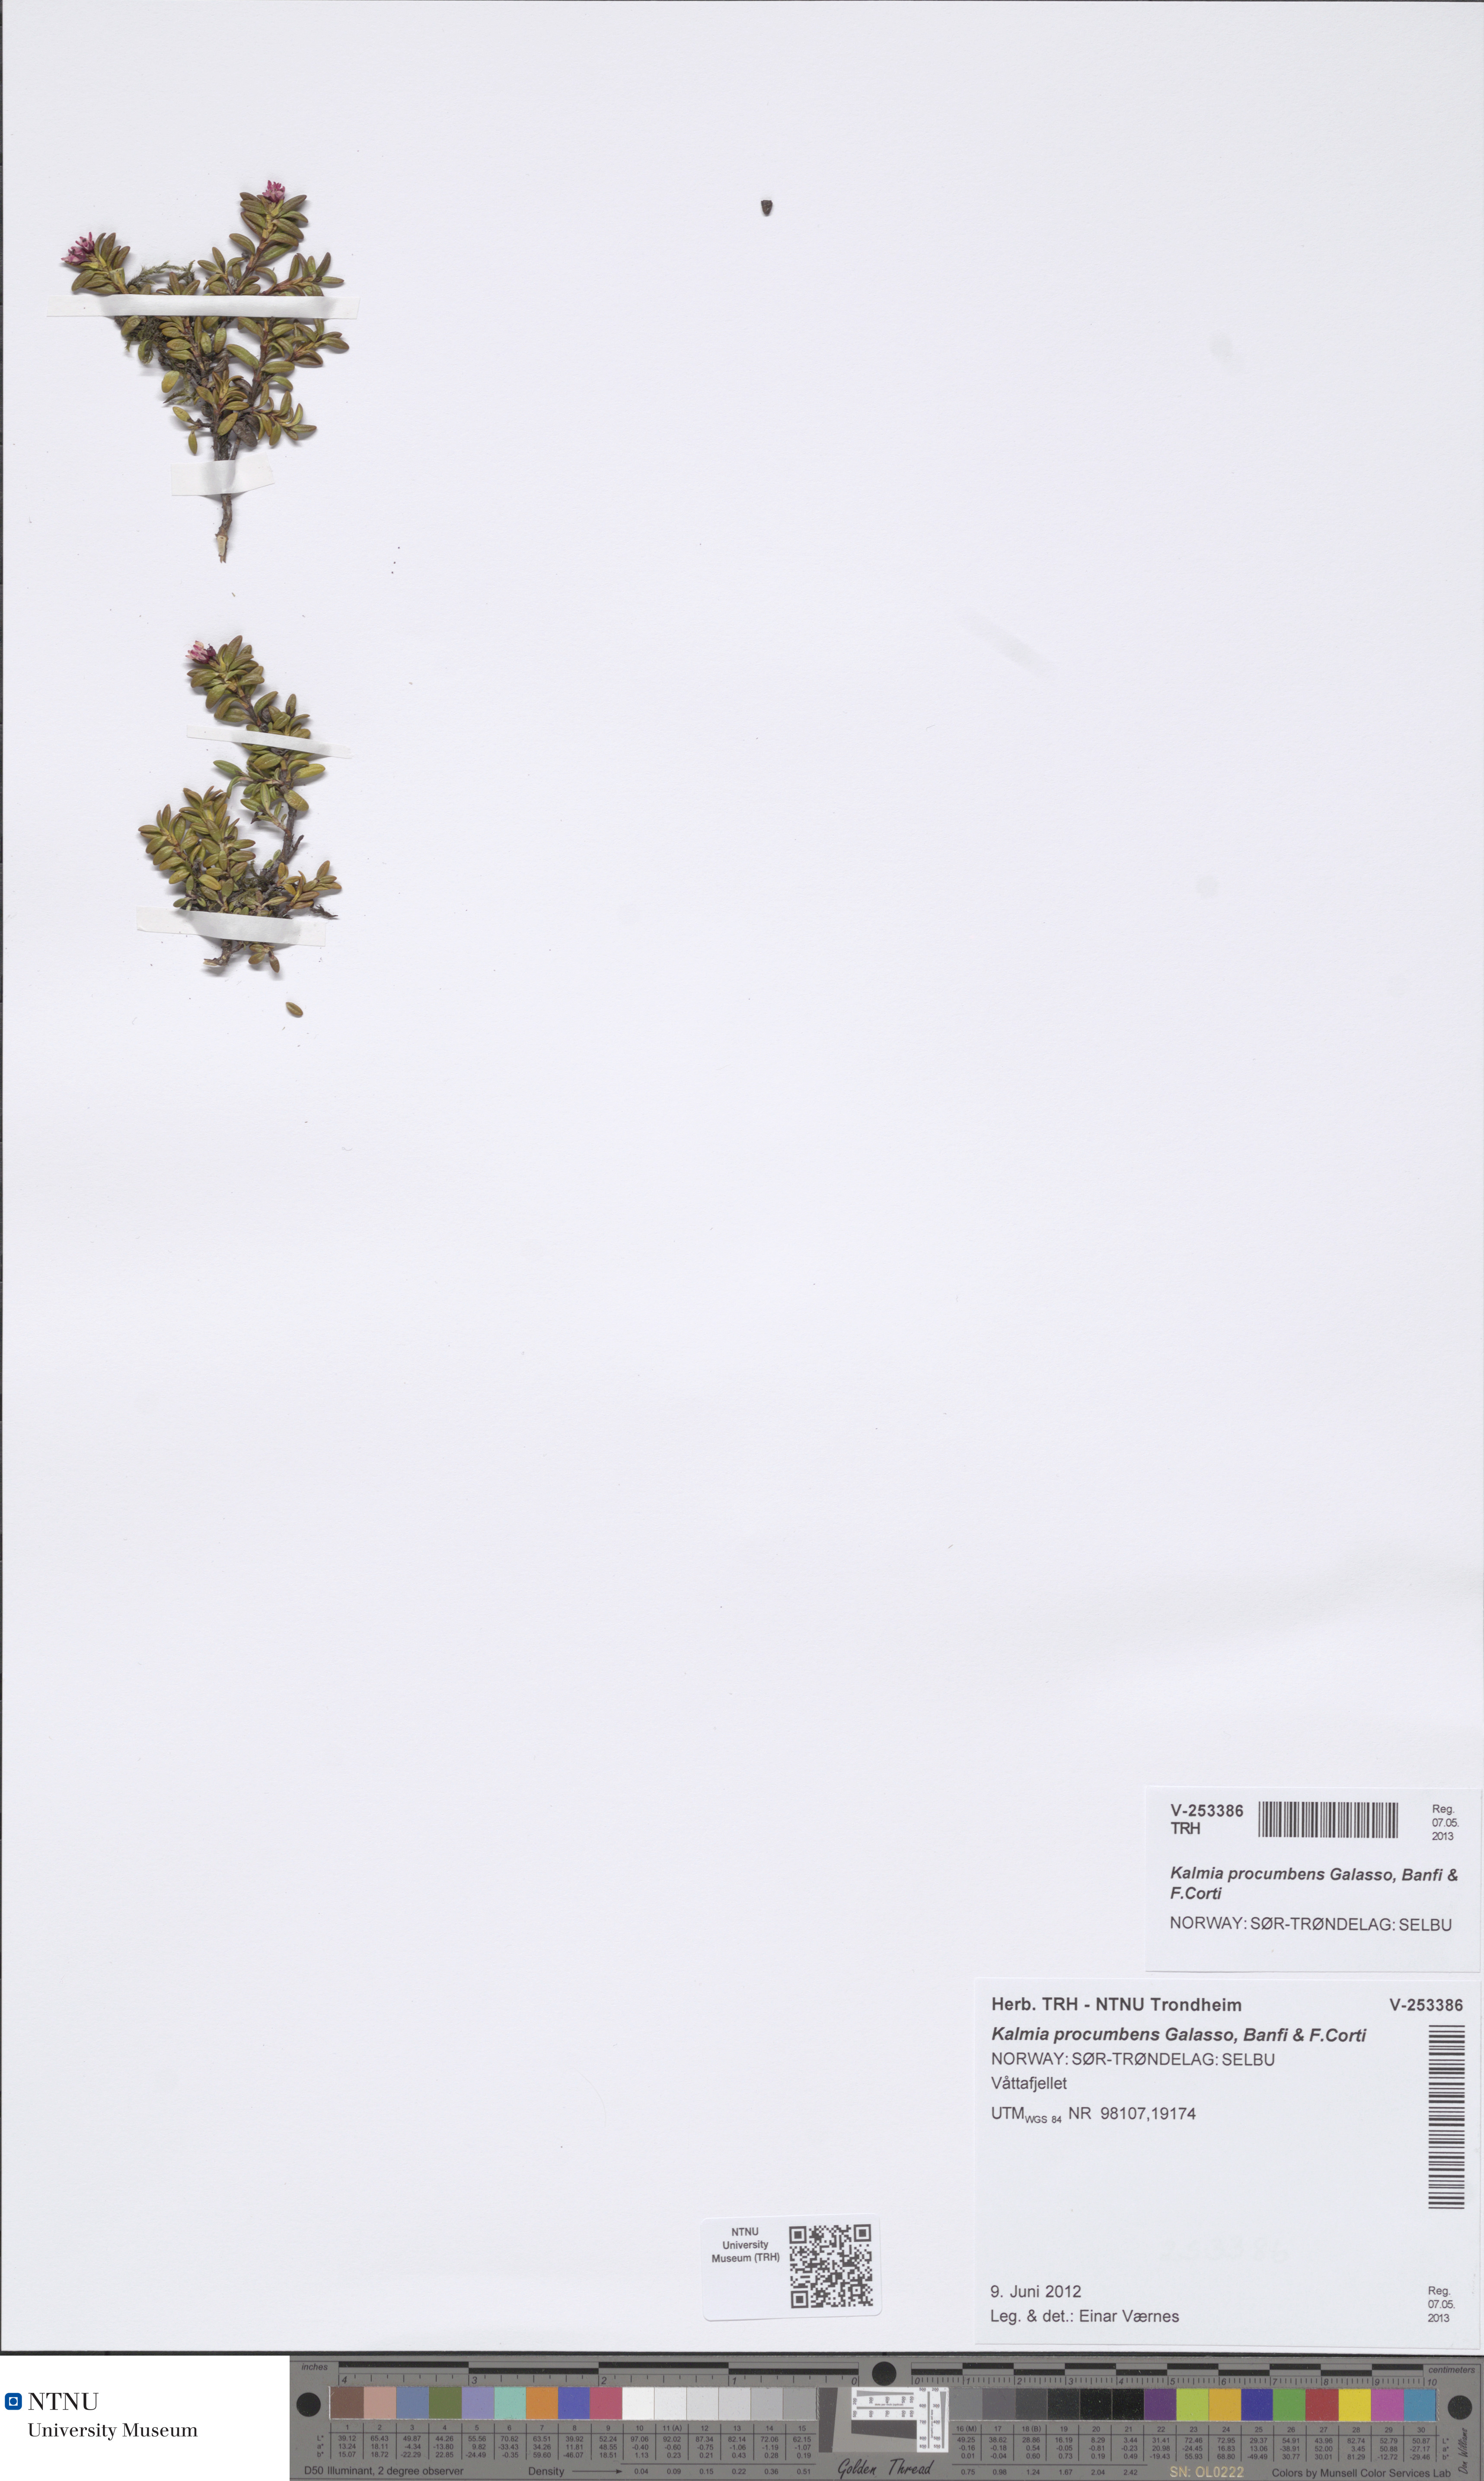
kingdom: Plantae
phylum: Tracheophyta
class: Magnoliopsida
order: Ericales
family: Ericaceae
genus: Kalmia
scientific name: Kalmia procumbens
